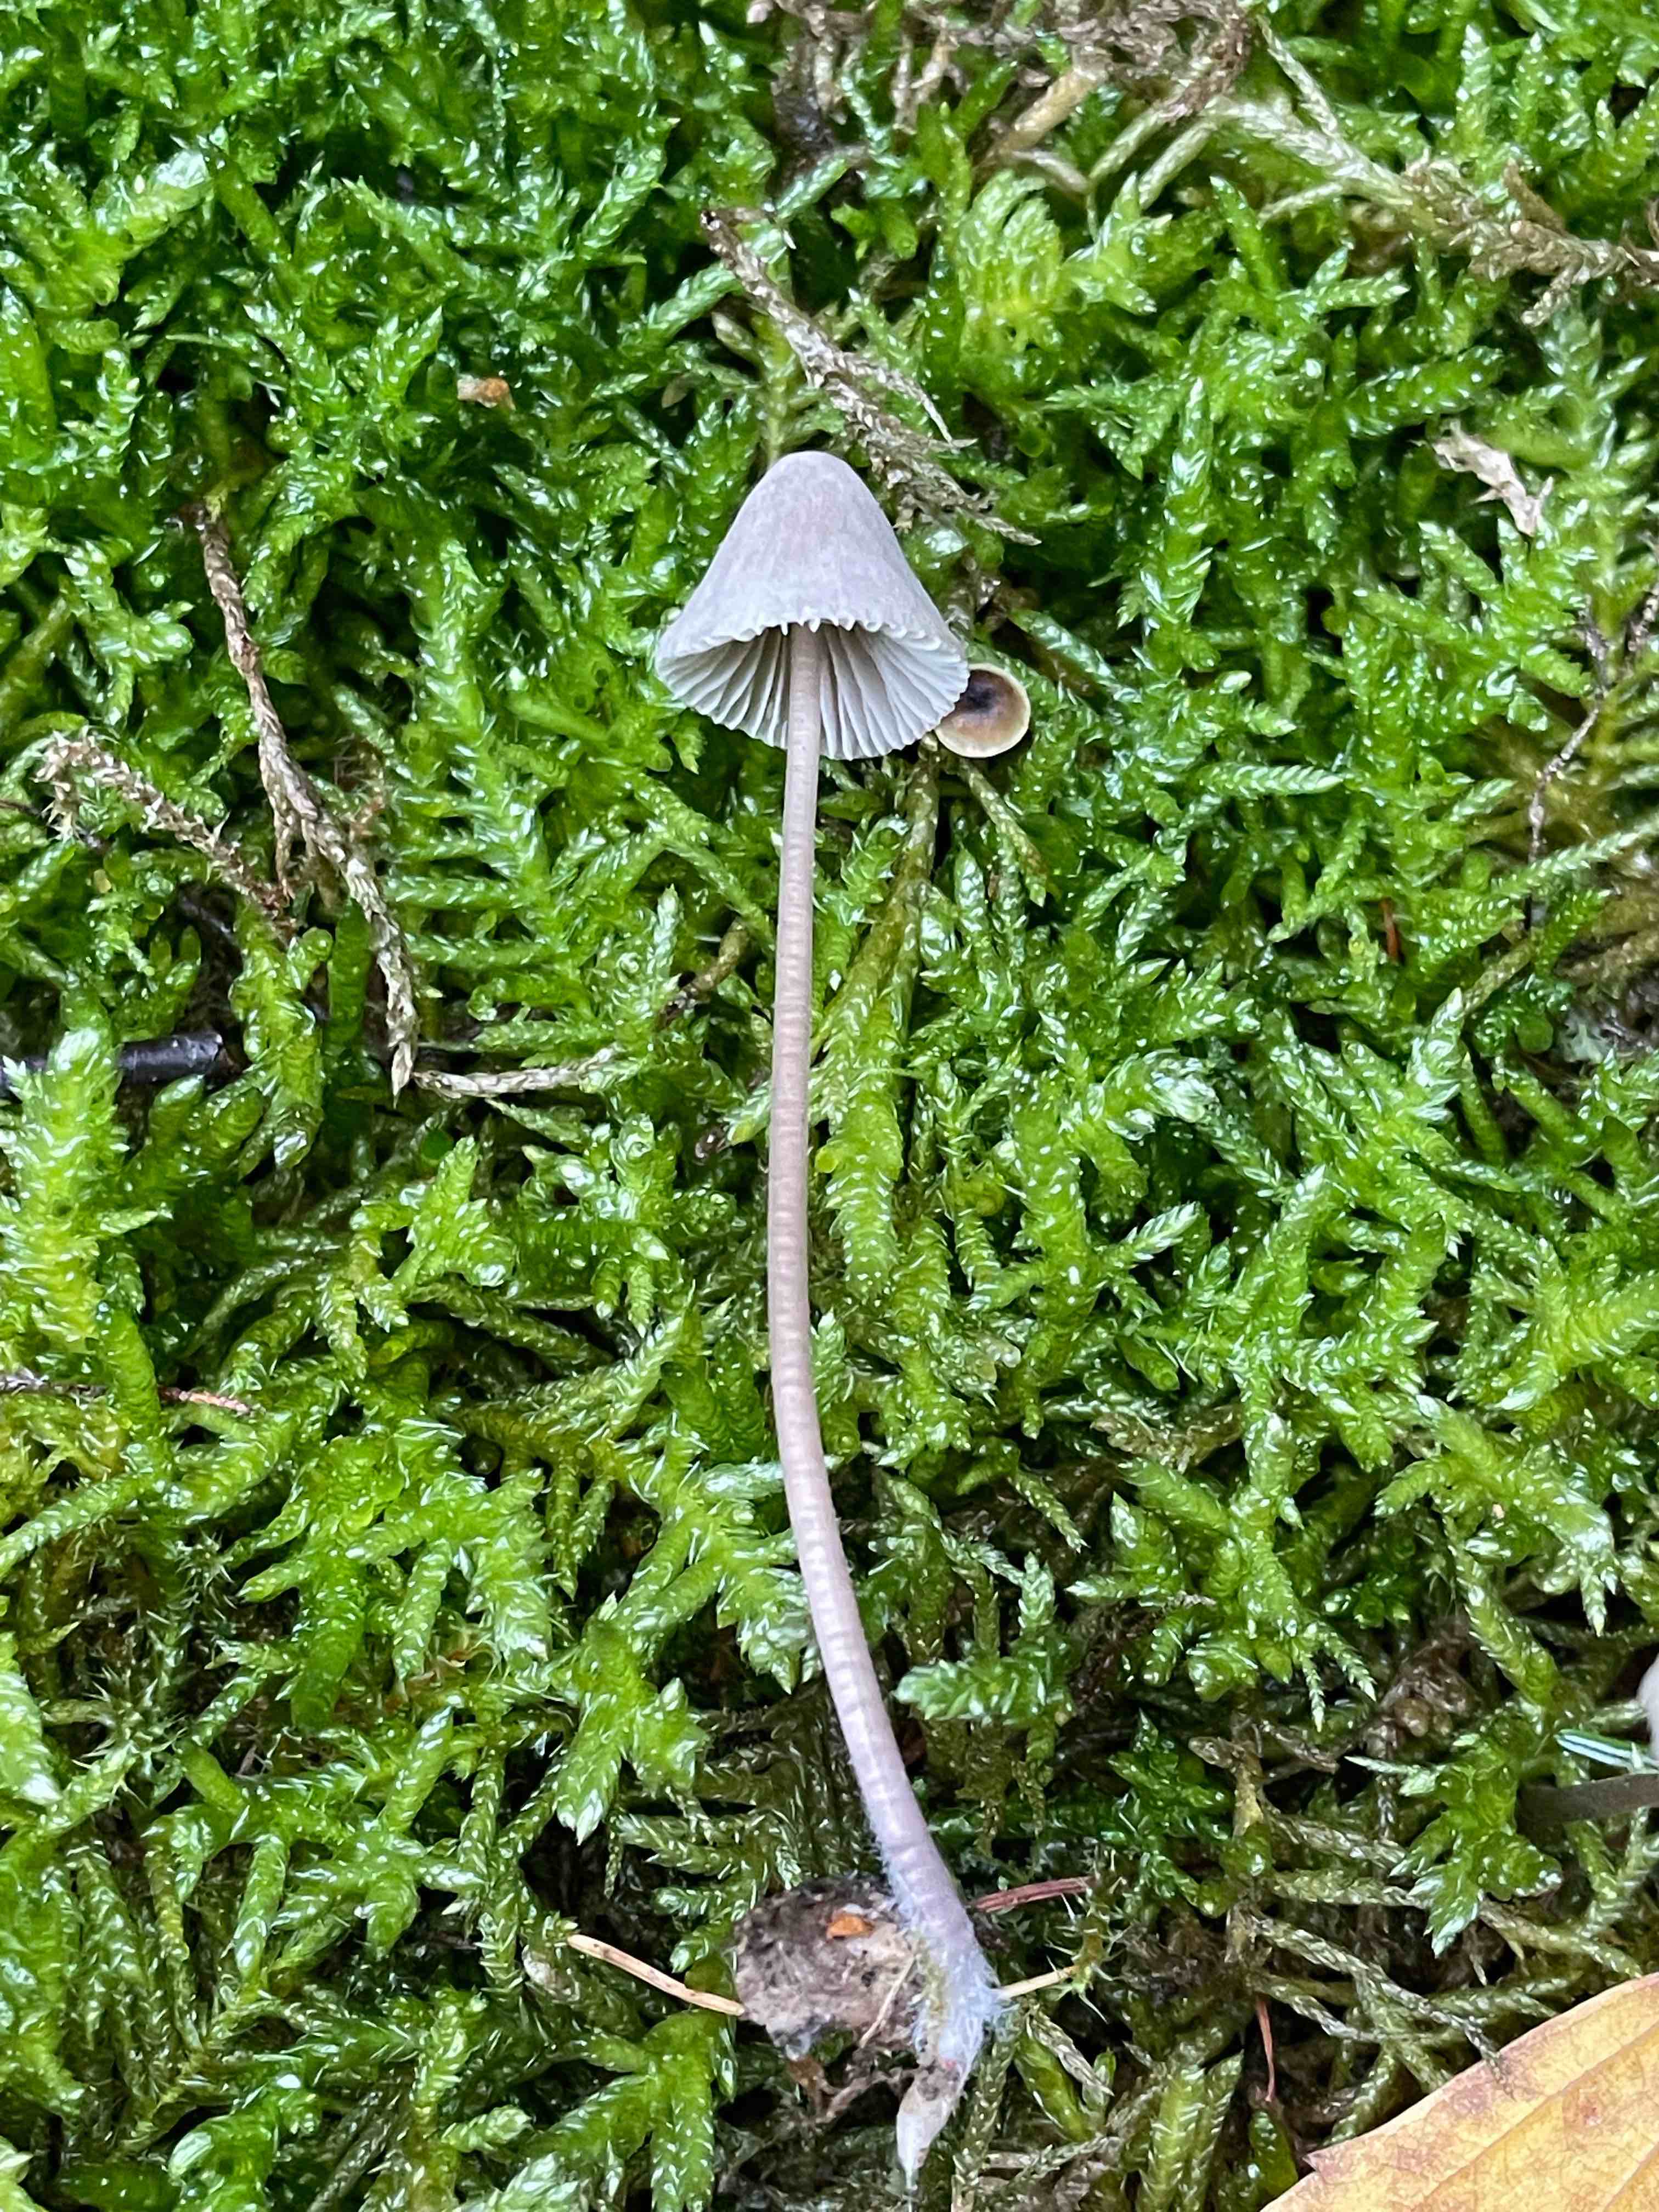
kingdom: Fungi
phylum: Basidiomycota
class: Agaricomycetes
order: Agaricales
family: Mycenaceae
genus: Mycena
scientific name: Mycena leptocephala
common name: klor-huesvamp
